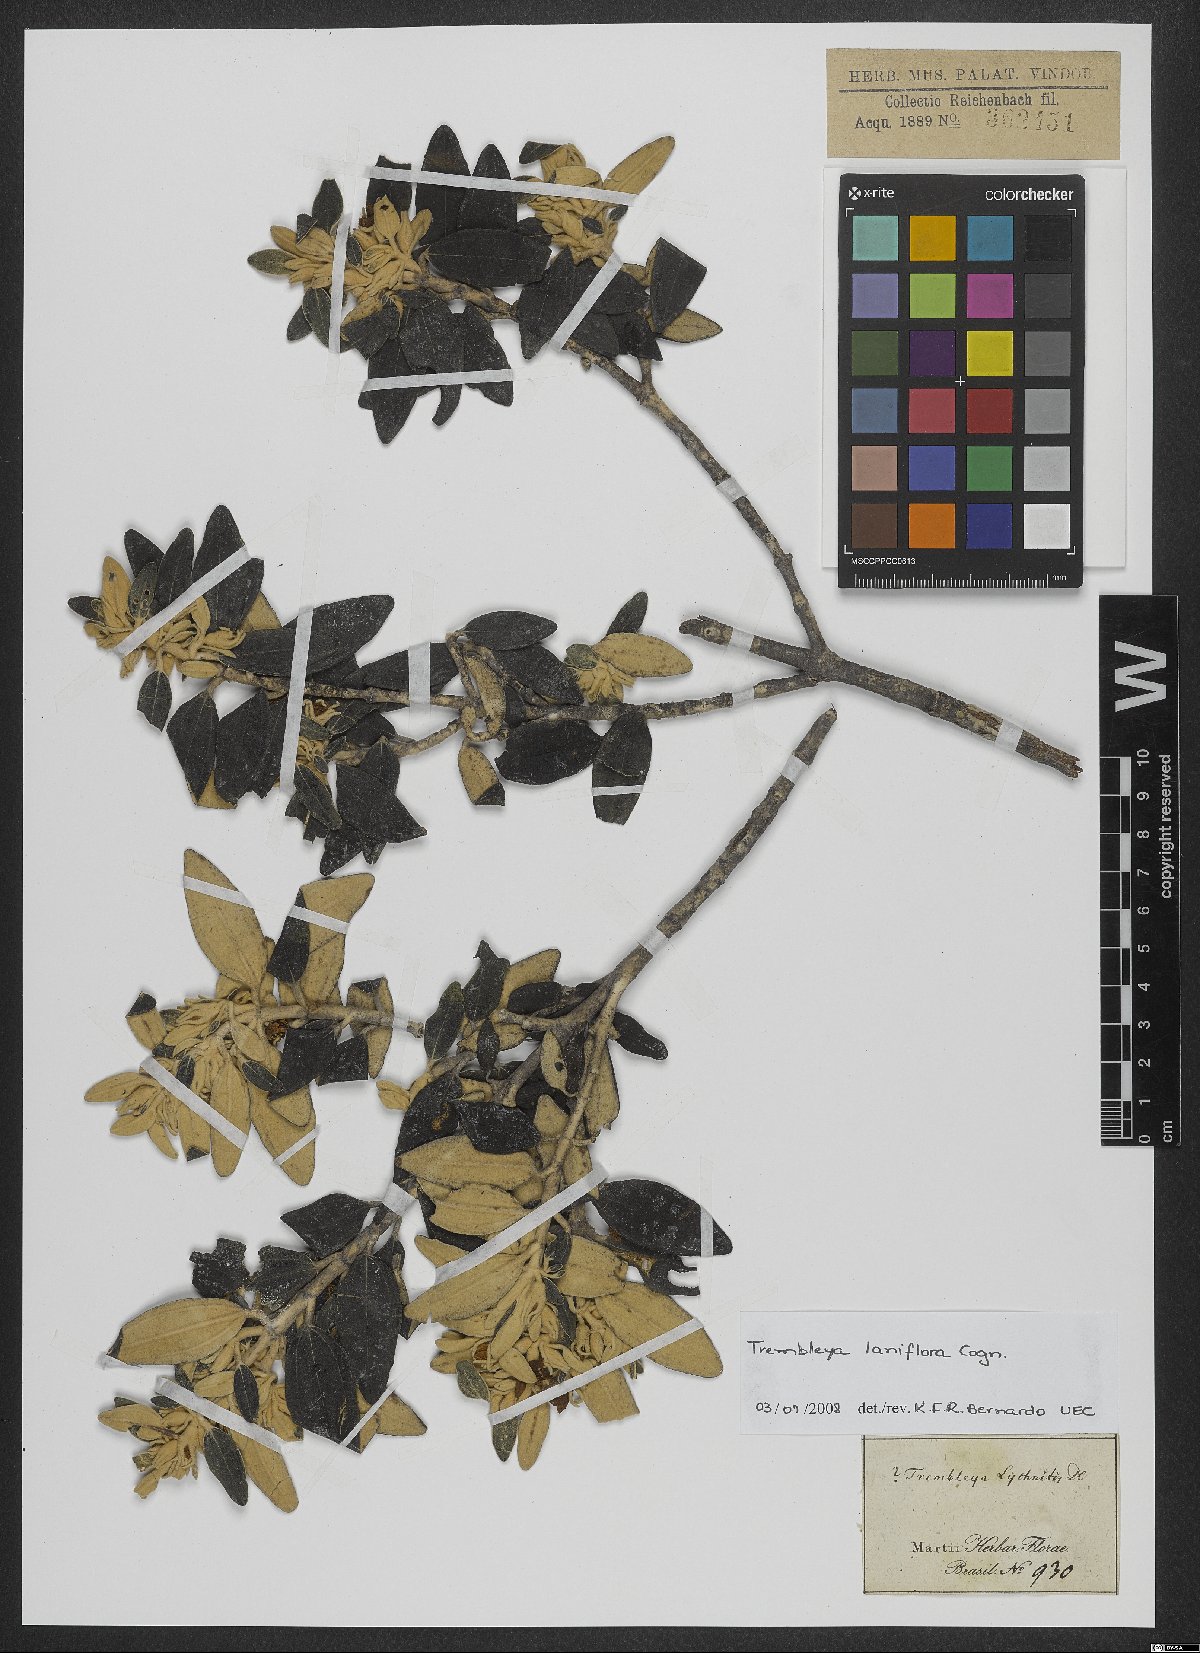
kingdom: Plantae
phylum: Tracheophyta
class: Magnoliopsida
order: Myrtales
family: Melastomataceae
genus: Microlicia
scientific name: Microlicia laniflora
